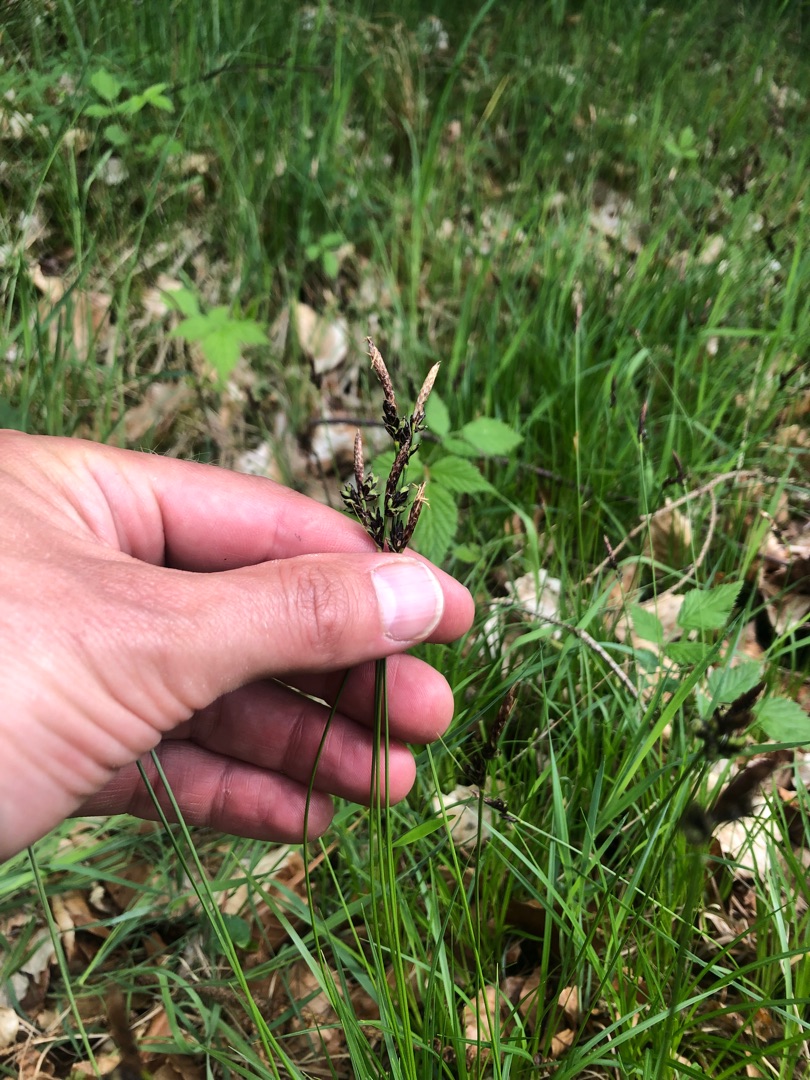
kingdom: Plantae
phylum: Tracheophyta
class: Liliopsida
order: Poales
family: Cyperaceae
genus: Carex
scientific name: Carex montana
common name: Bakke-star
